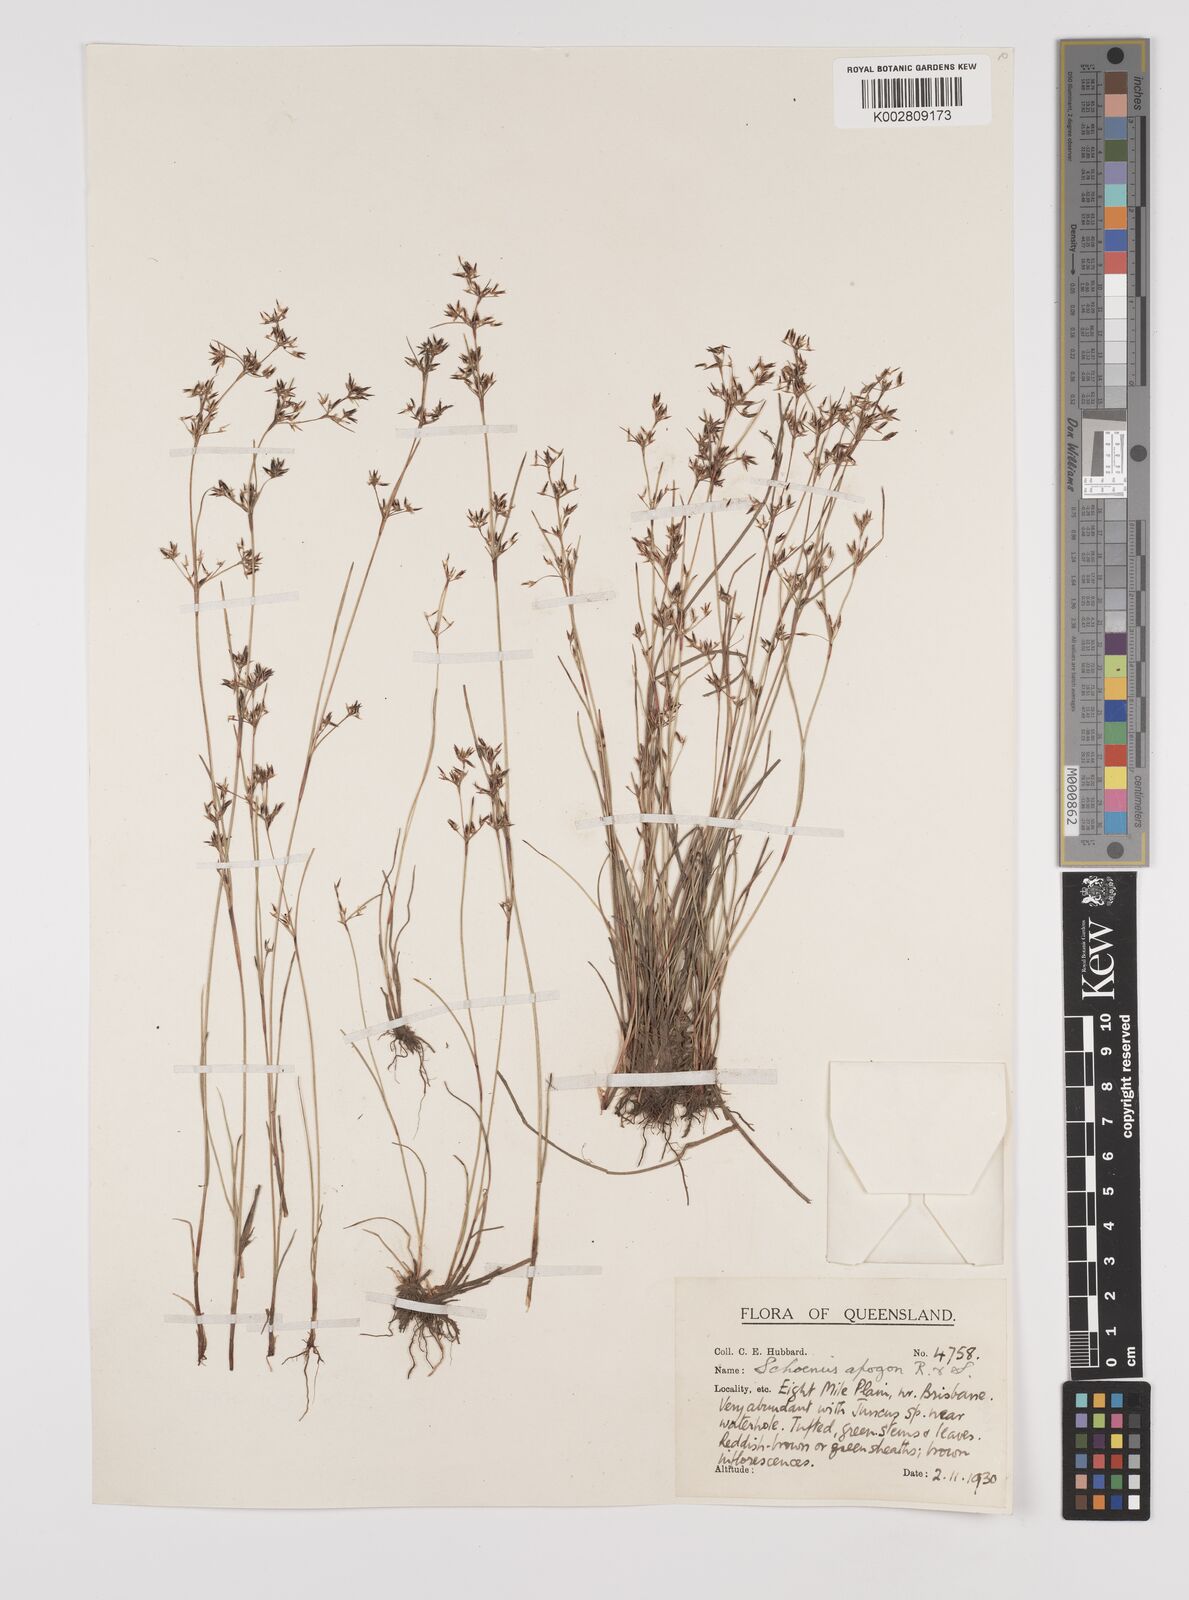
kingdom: Plantae
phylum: Tracheophyta
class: Liliopsida
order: Poales
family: Cyperaceae
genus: Schoenus
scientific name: Schoenus apogon
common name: Smooth bogrush
